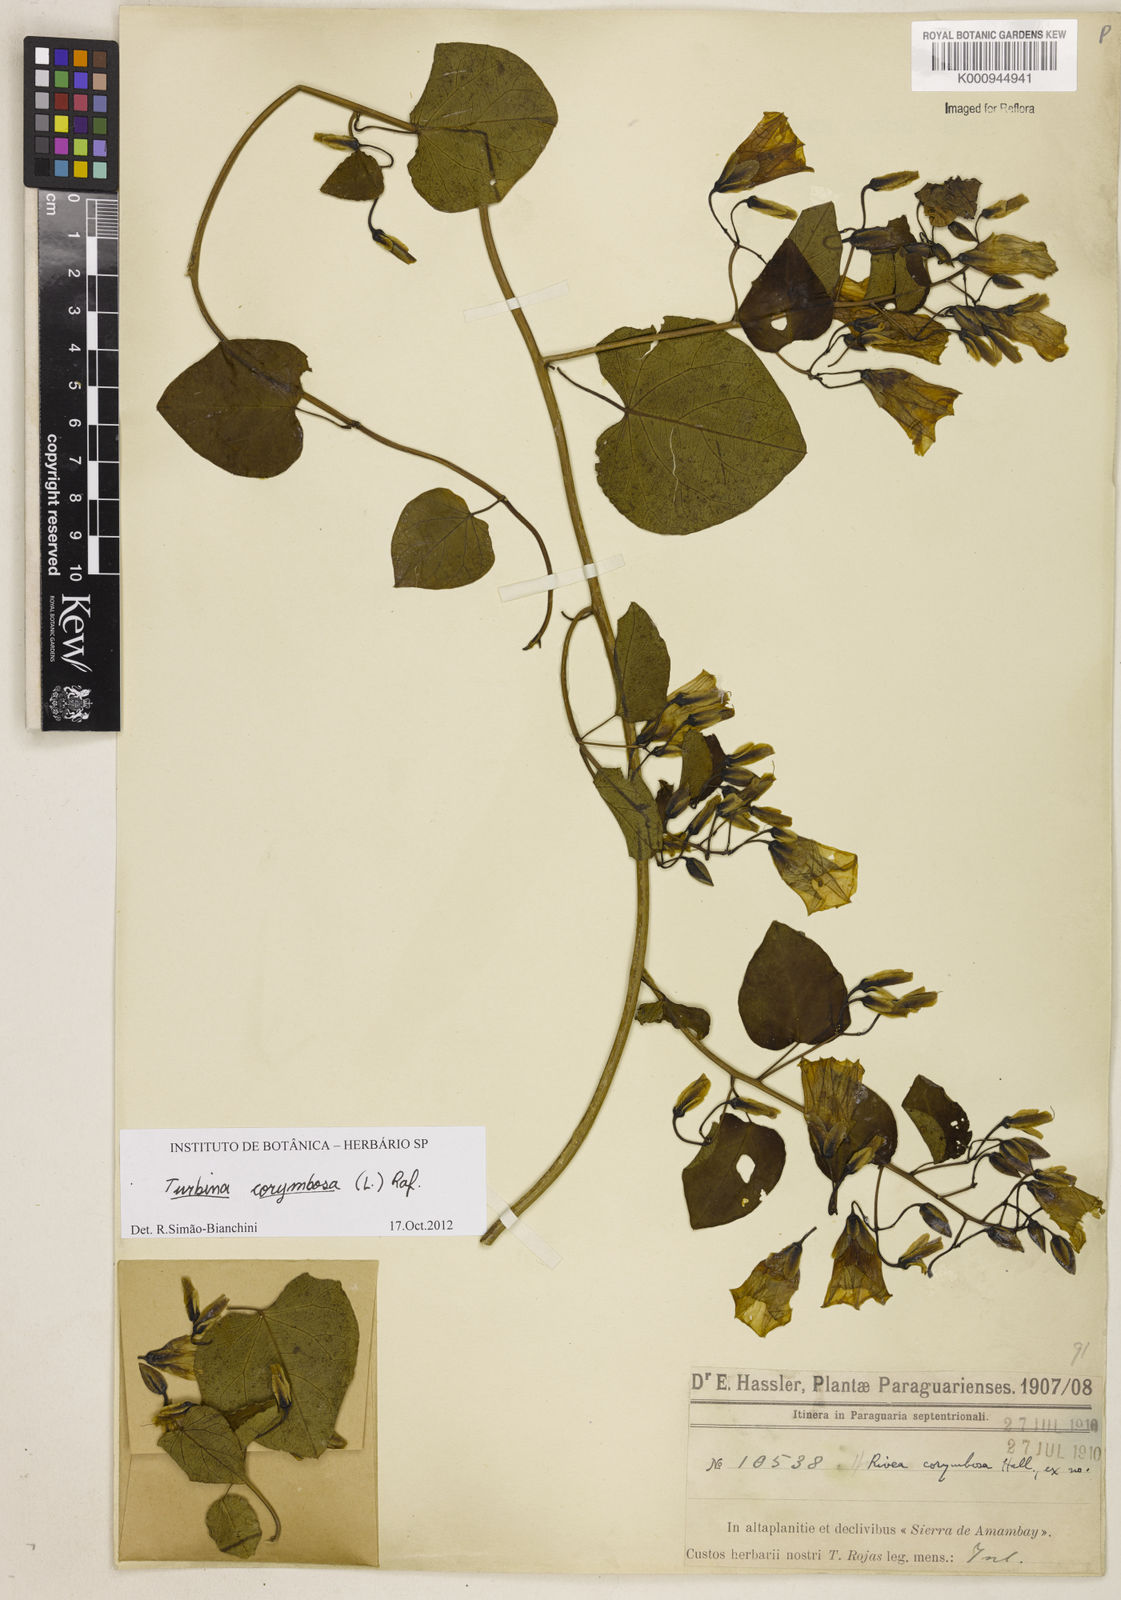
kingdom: Plantae
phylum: Tracheophyta
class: Magnoliopsida
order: Solanales
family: Convolvulaceae
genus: Ipomoea
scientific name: Ipomoea corymbosa
